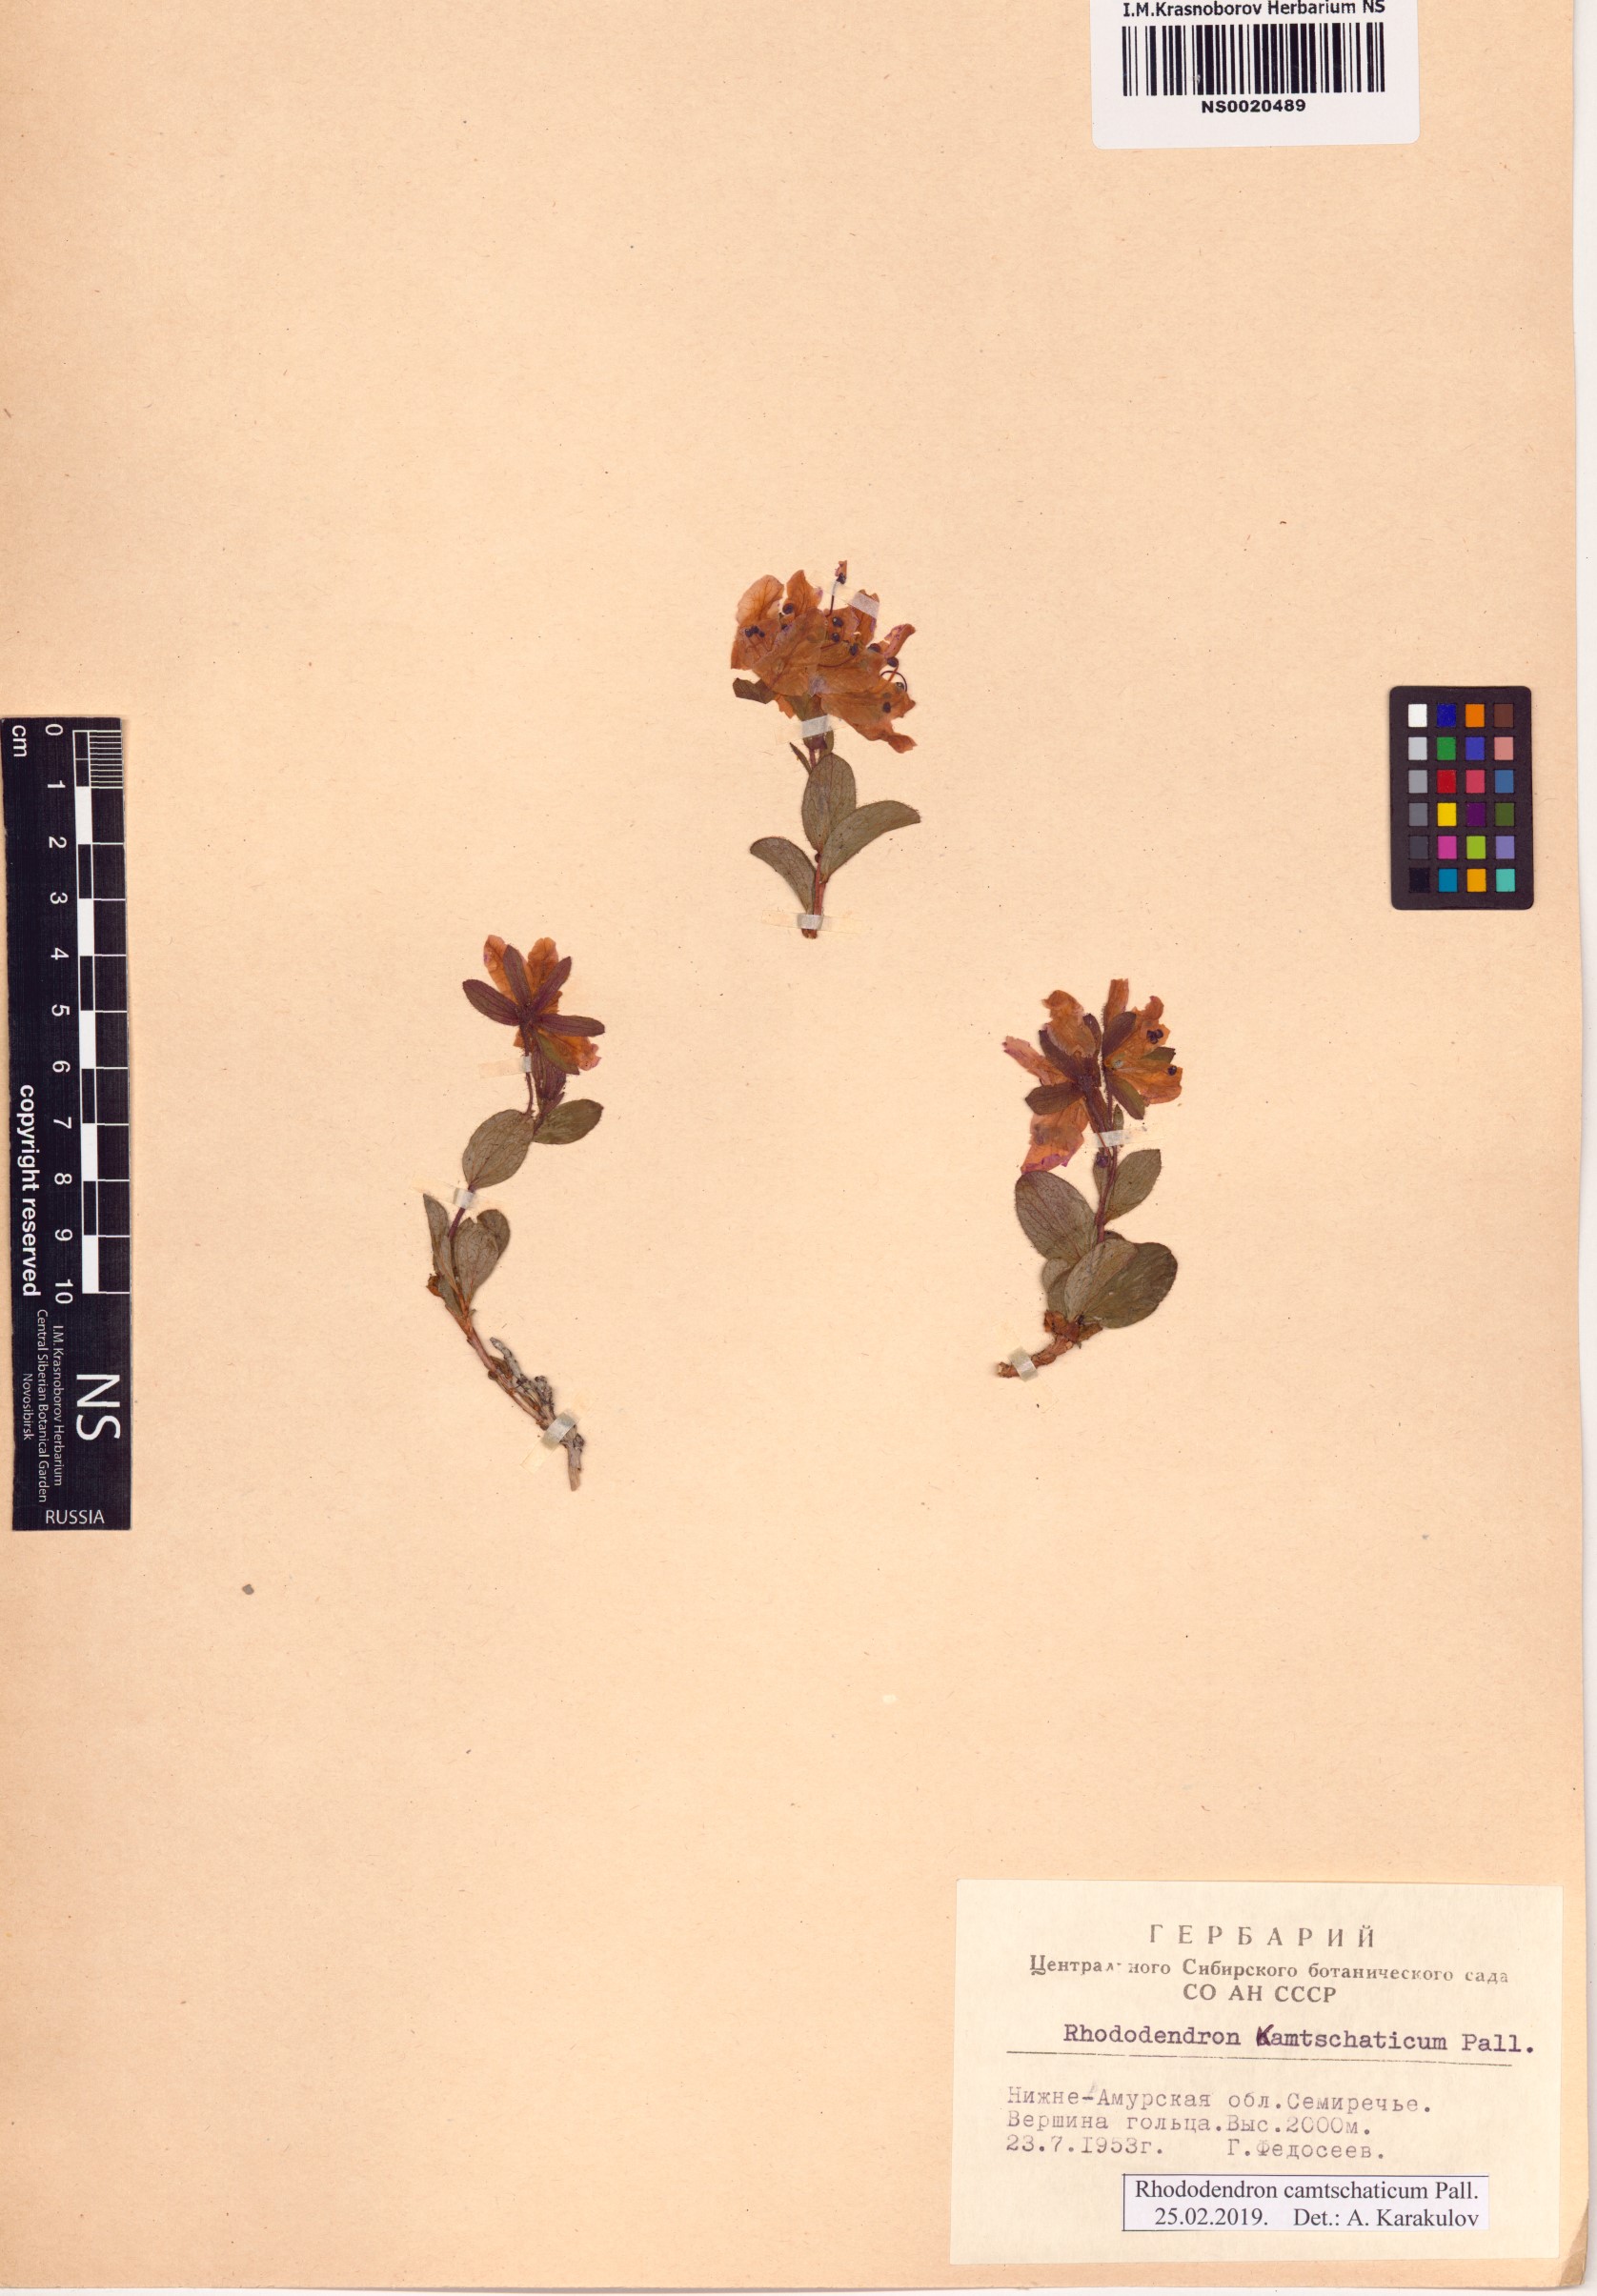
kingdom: Plantae
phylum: Tracheophyta
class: Magnoliopsida
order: Ericales
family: Ericaceae
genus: Rhododendron
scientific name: Rhododendron camtschaticum
